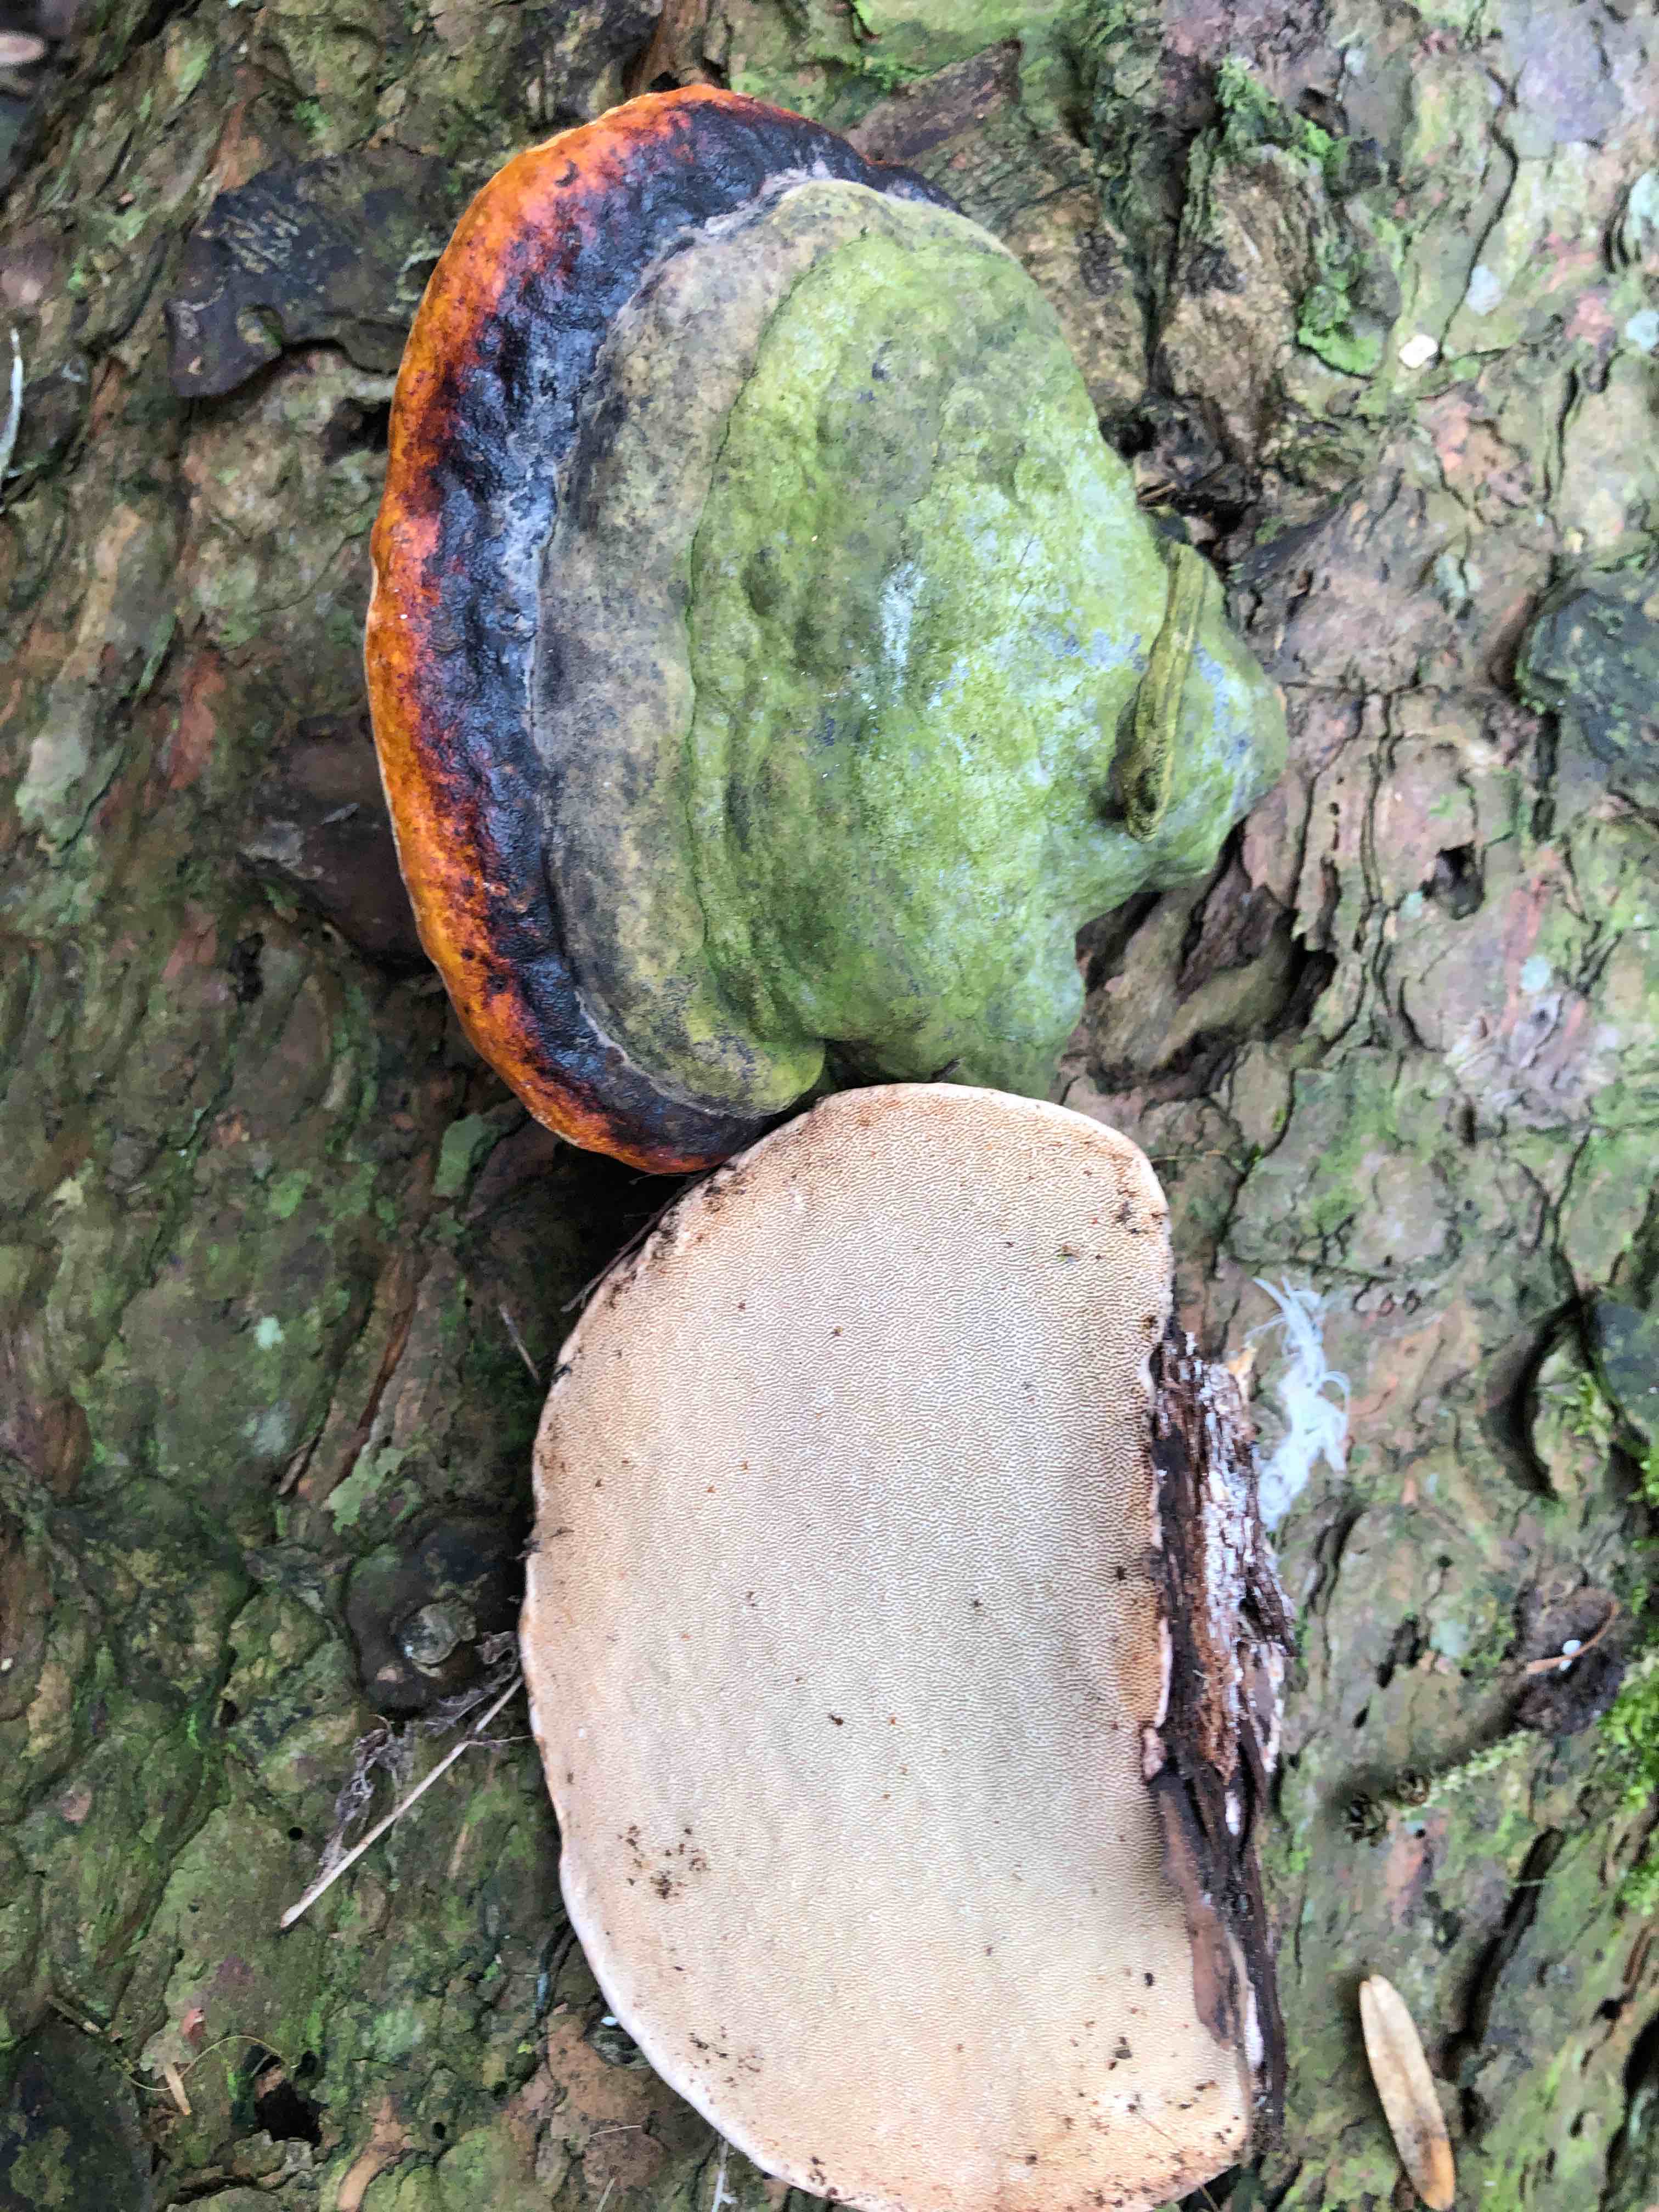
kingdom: Fungi
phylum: Basidiomycota
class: Agaricomycetes
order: Polyporales
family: Fomitopsidaceae
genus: Fomitopsis
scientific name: Fomitopsis pinicola
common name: randbæltet hovporesvamp
